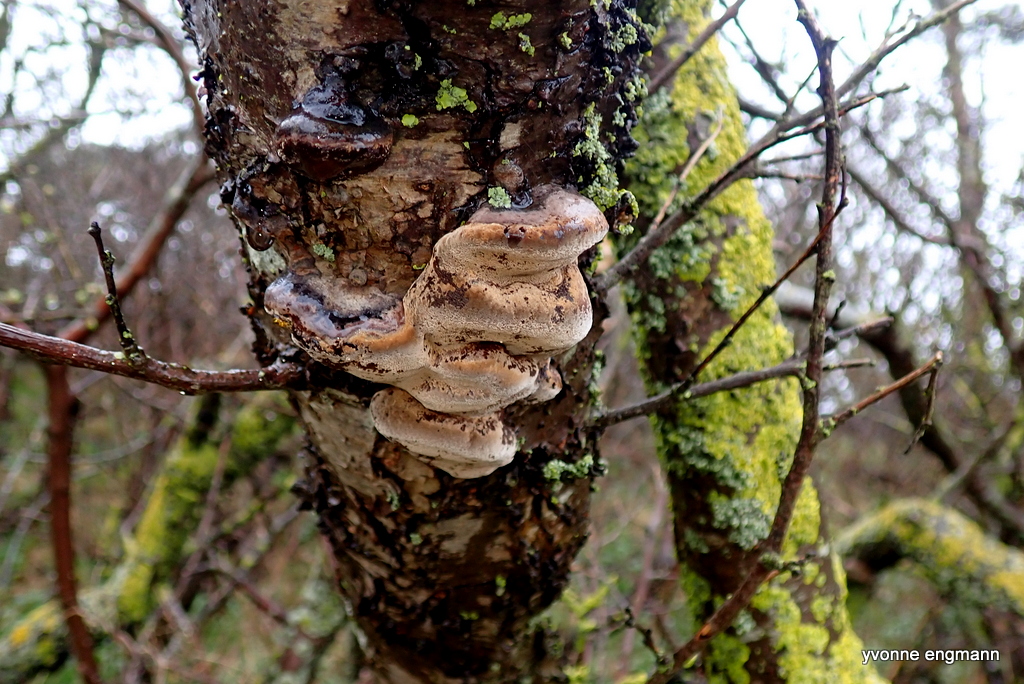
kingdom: Fungi
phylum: Basidiomycota
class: Agaricomycetes
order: Hymenochaetales
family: Hymenochaetaceae
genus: Phellinus
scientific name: Phellinus pomaceus
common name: blomme-ildporesvamp
